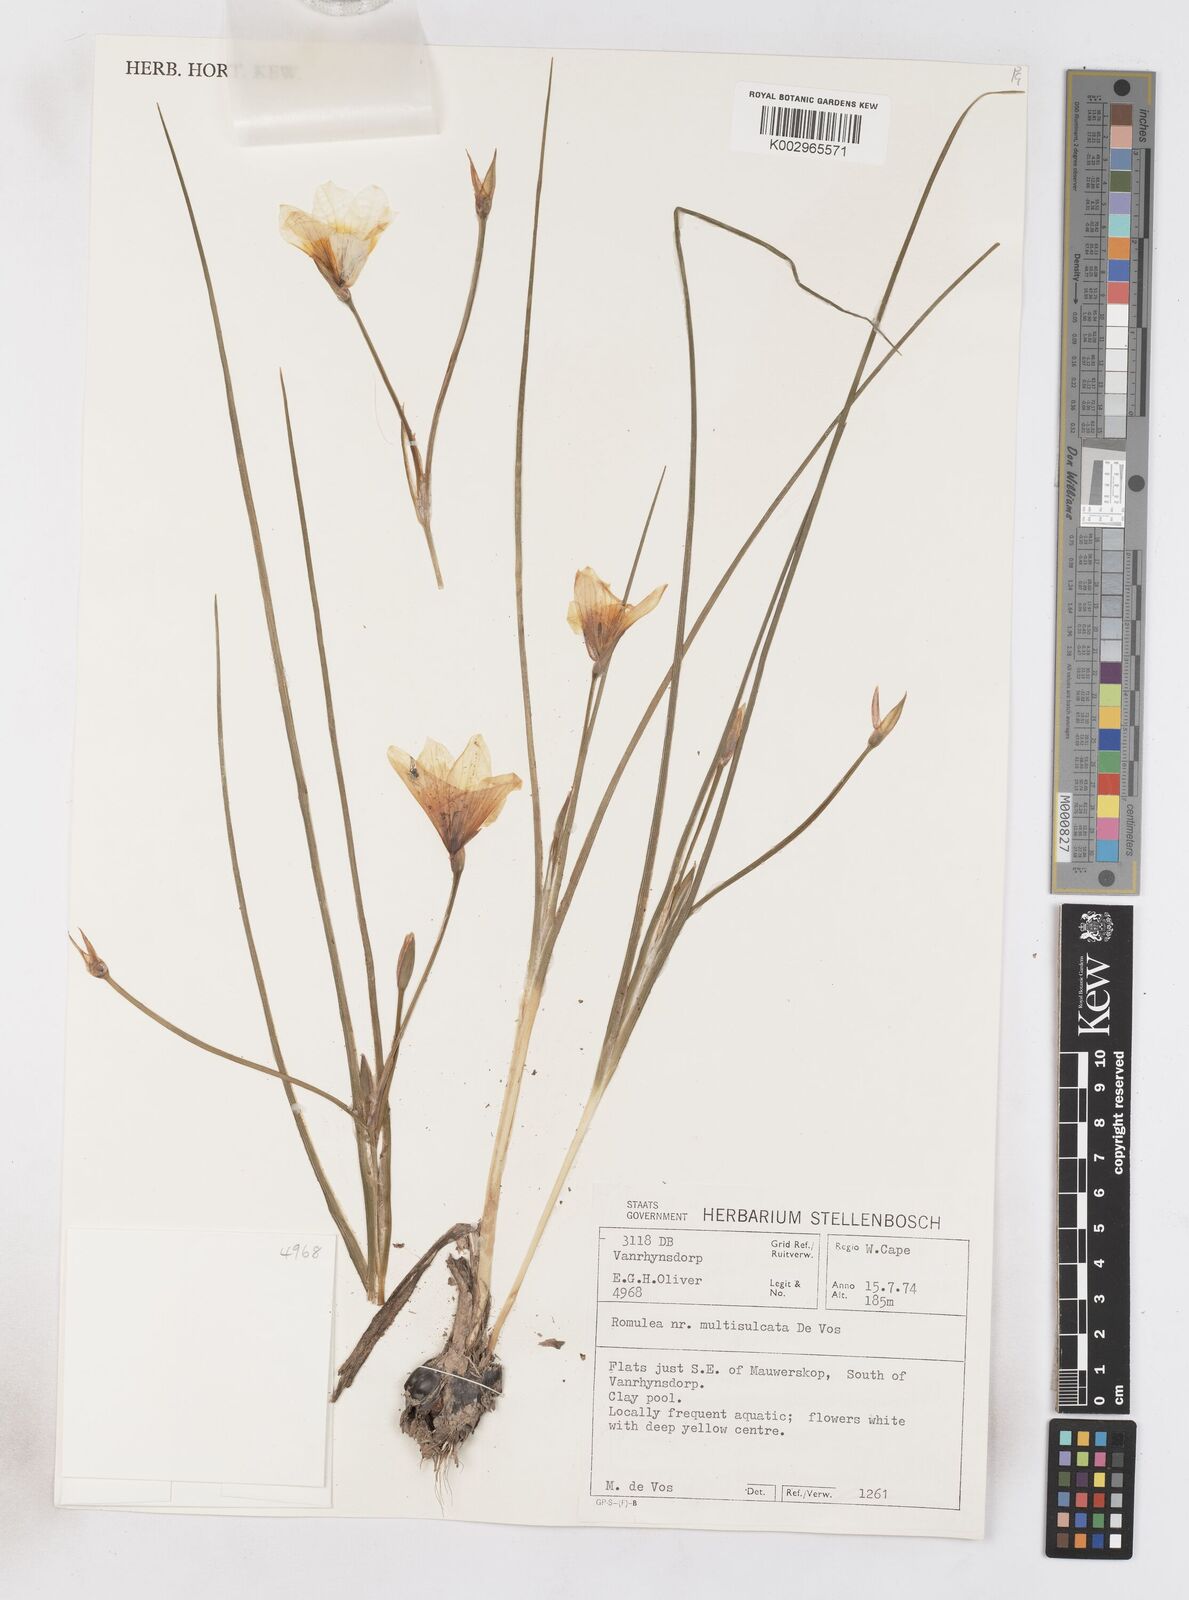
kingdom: Plantae
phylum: Tracheophyta
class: Liliopsida
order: Asparagales
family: Iridaceae
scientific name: Iridaceae
